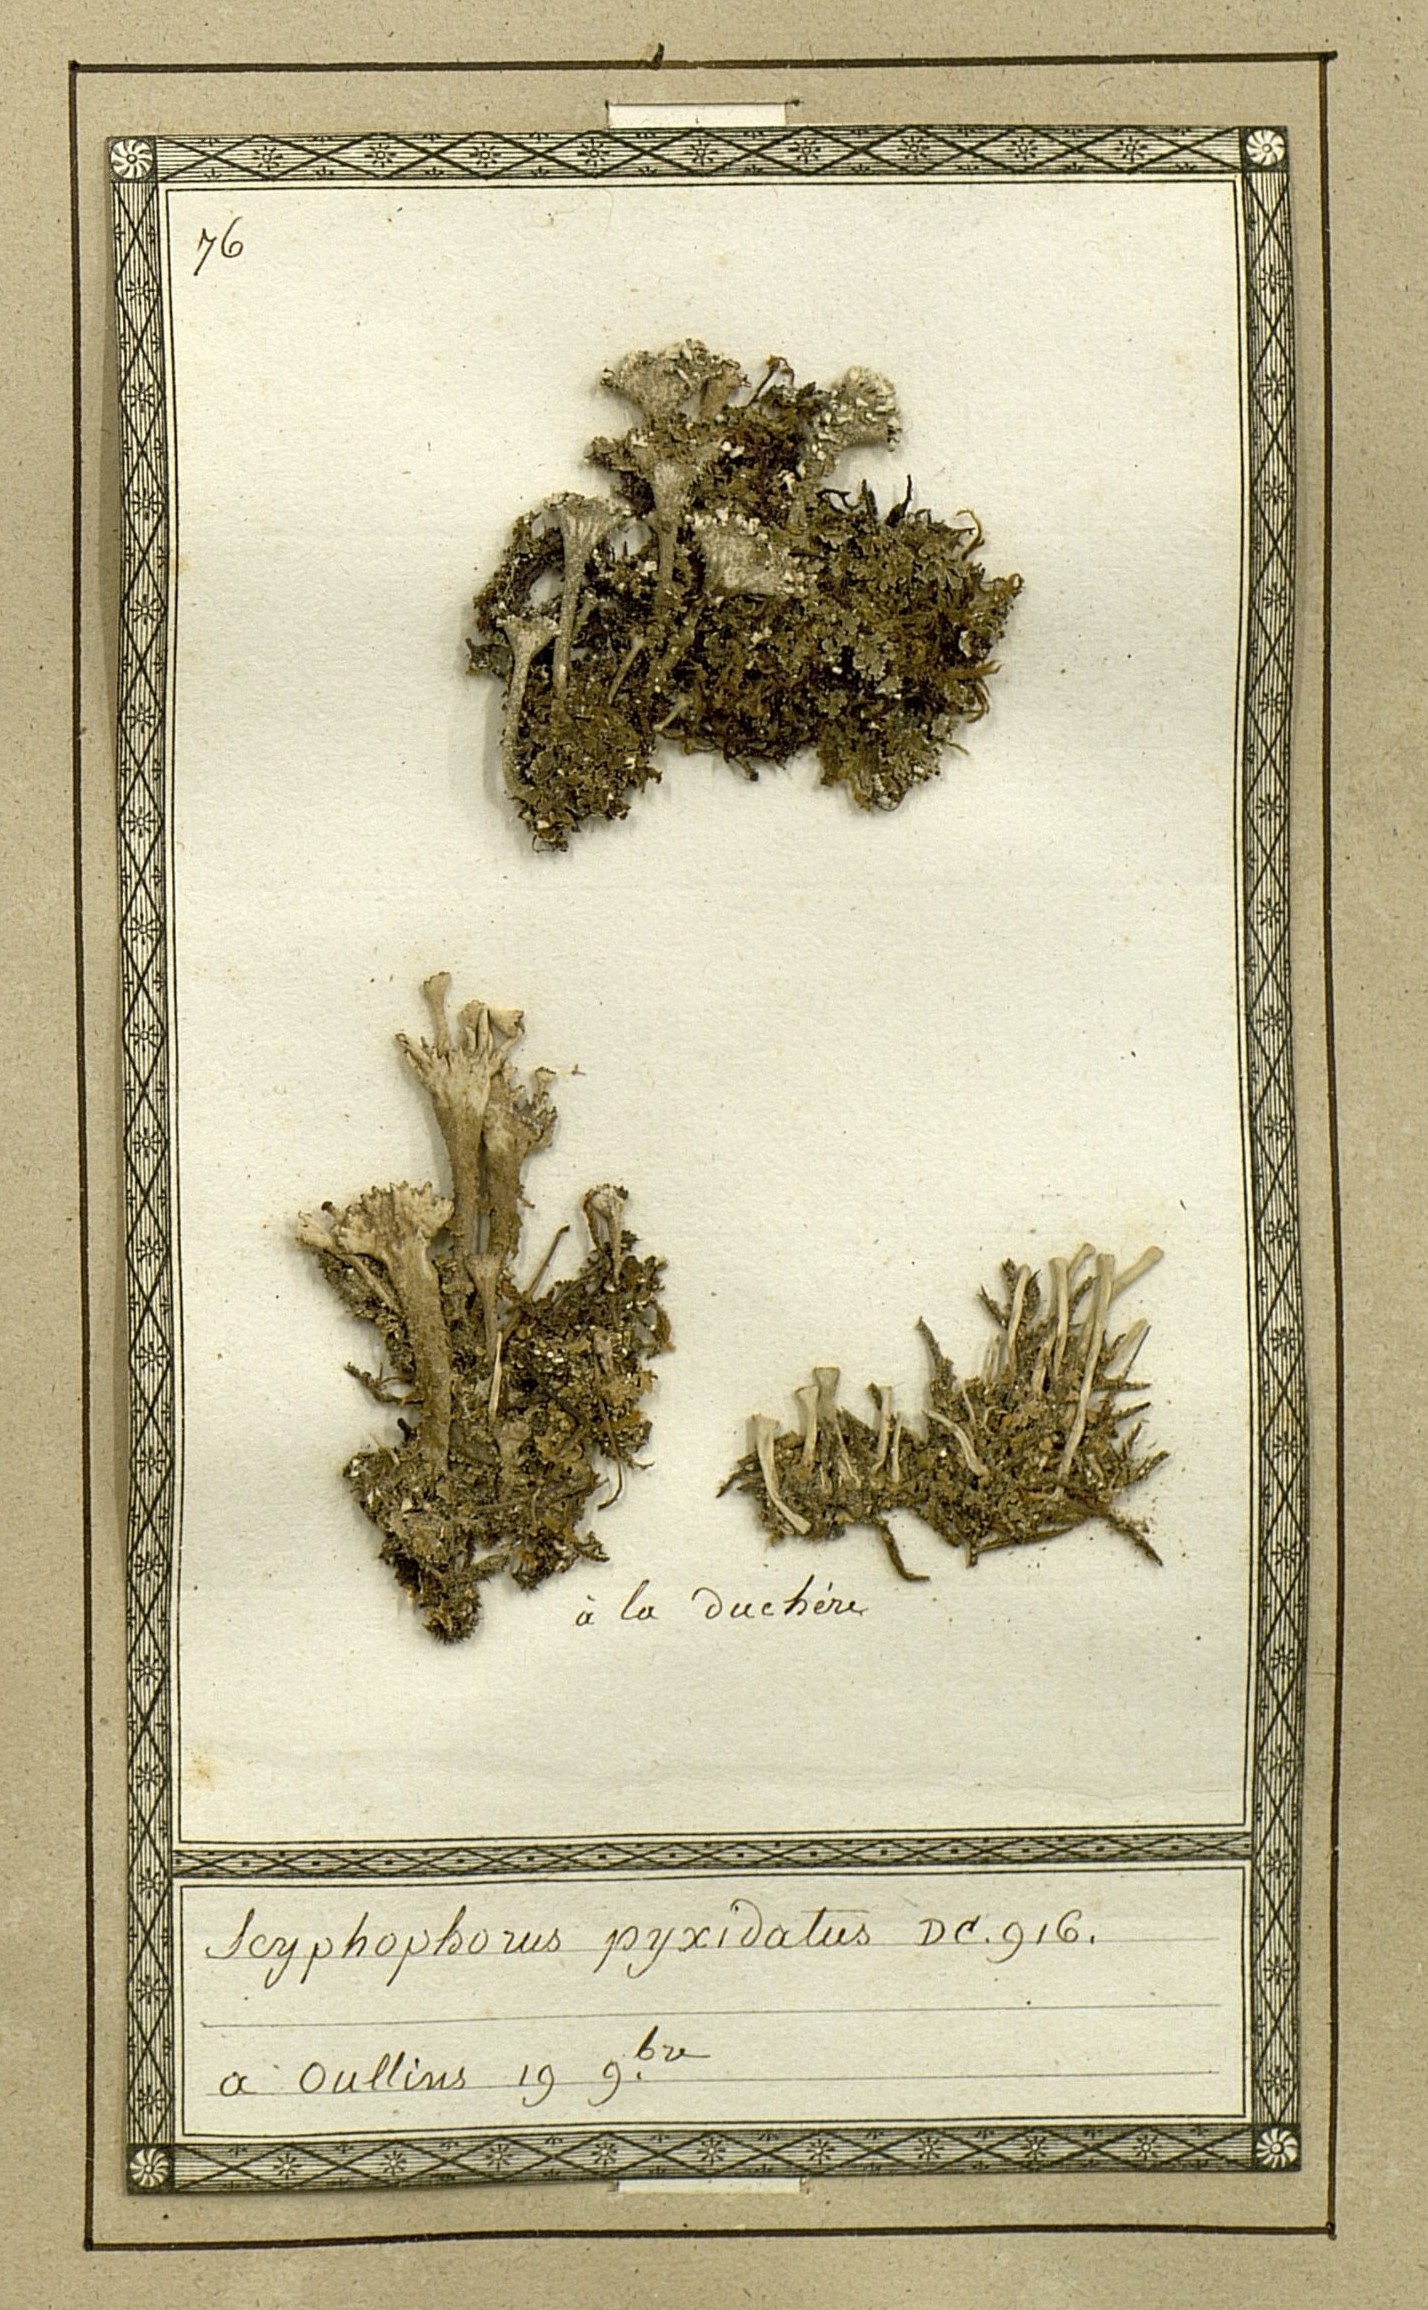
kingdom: Fungi
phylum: Ascomycota
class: Lecanoromycetes
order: Lecanorales
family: Cladoniaceae
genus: Cladonia
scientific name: Cladonia pyxidata
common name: Pebbled pixie cup
